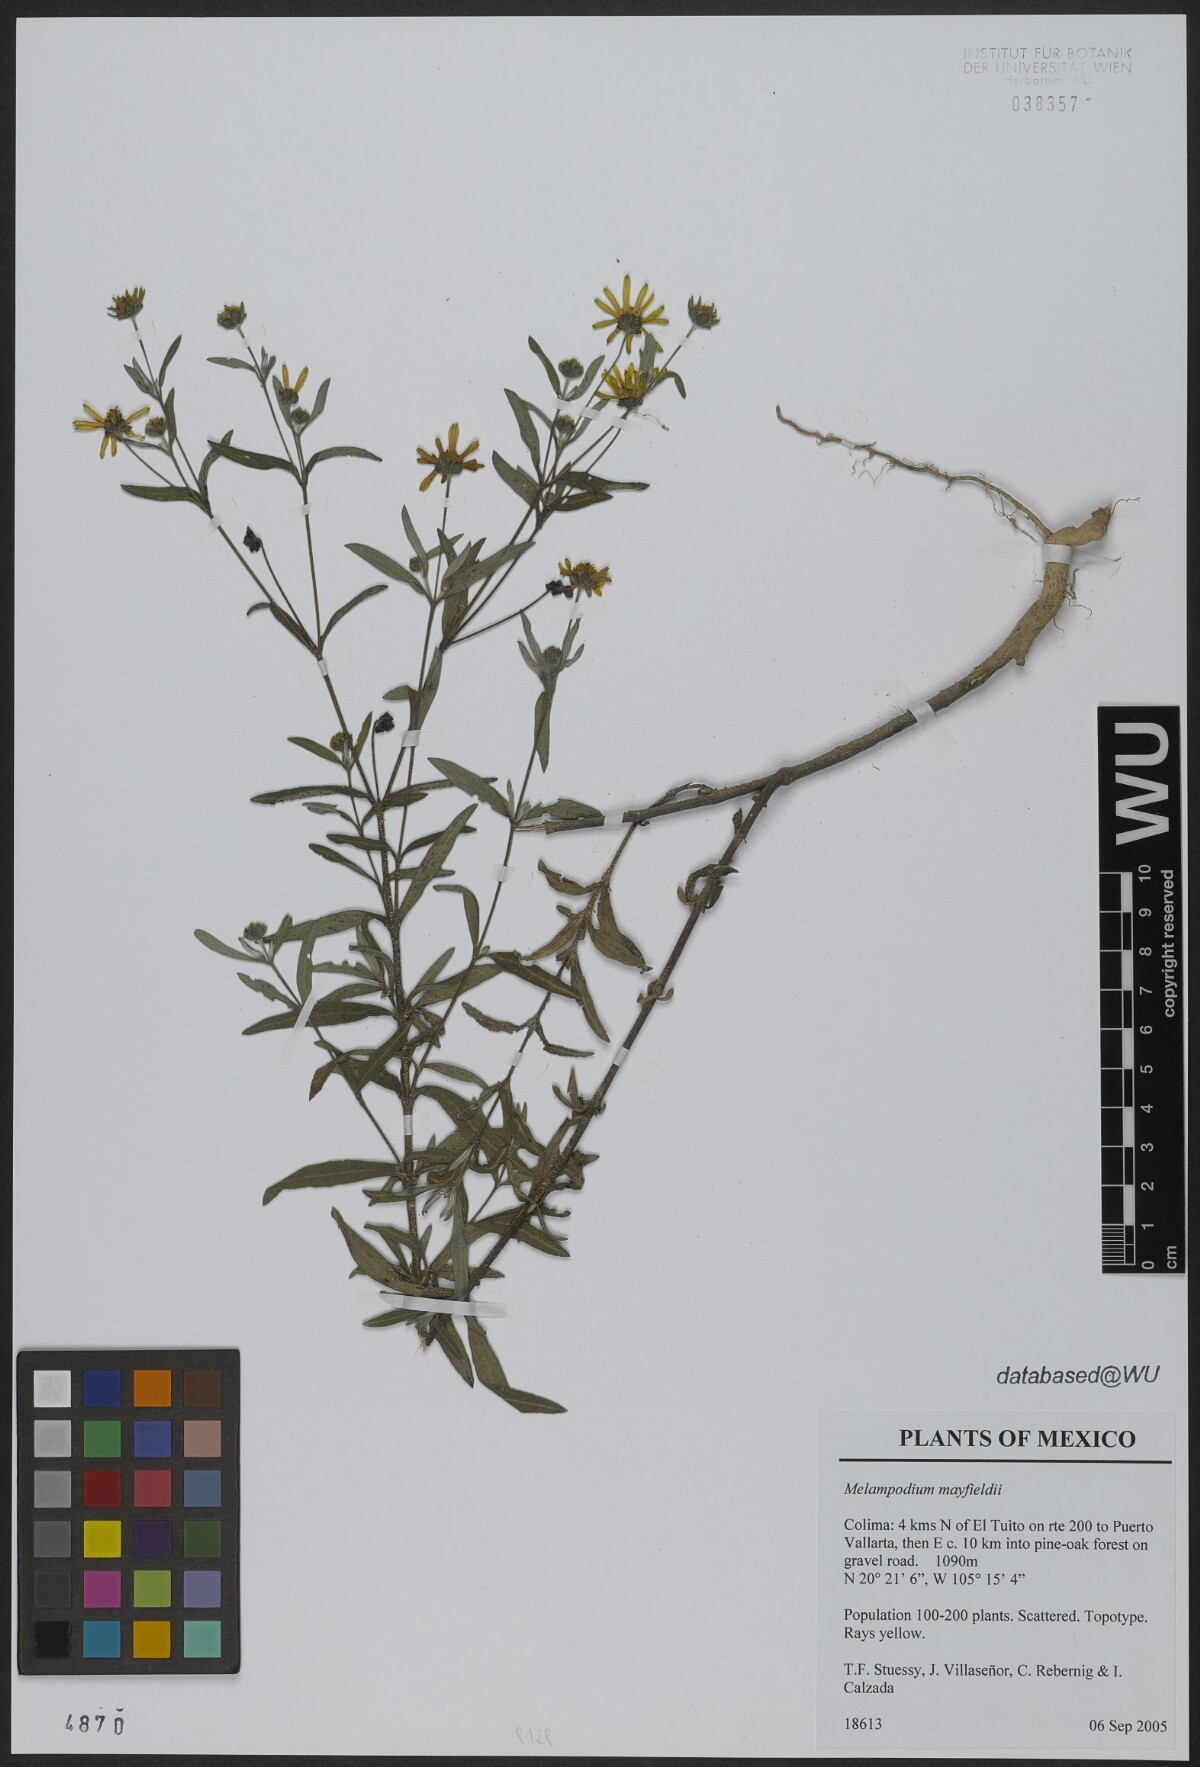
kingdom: Plantae
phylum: Tracheophyta
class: Magnoliopsida
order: Asterales
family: Asteraceae
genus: Melampodium
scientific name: Melampodium mayfieldii
